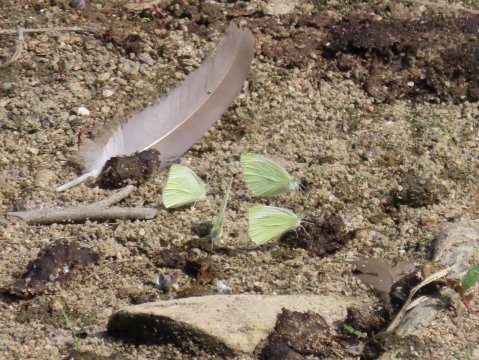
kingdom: Animalia
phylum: Arthropoda
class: Insecta
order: Lepidoptera
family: Pieridae
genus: Pieris
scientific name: Pieris rapae
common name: Cabbage White
